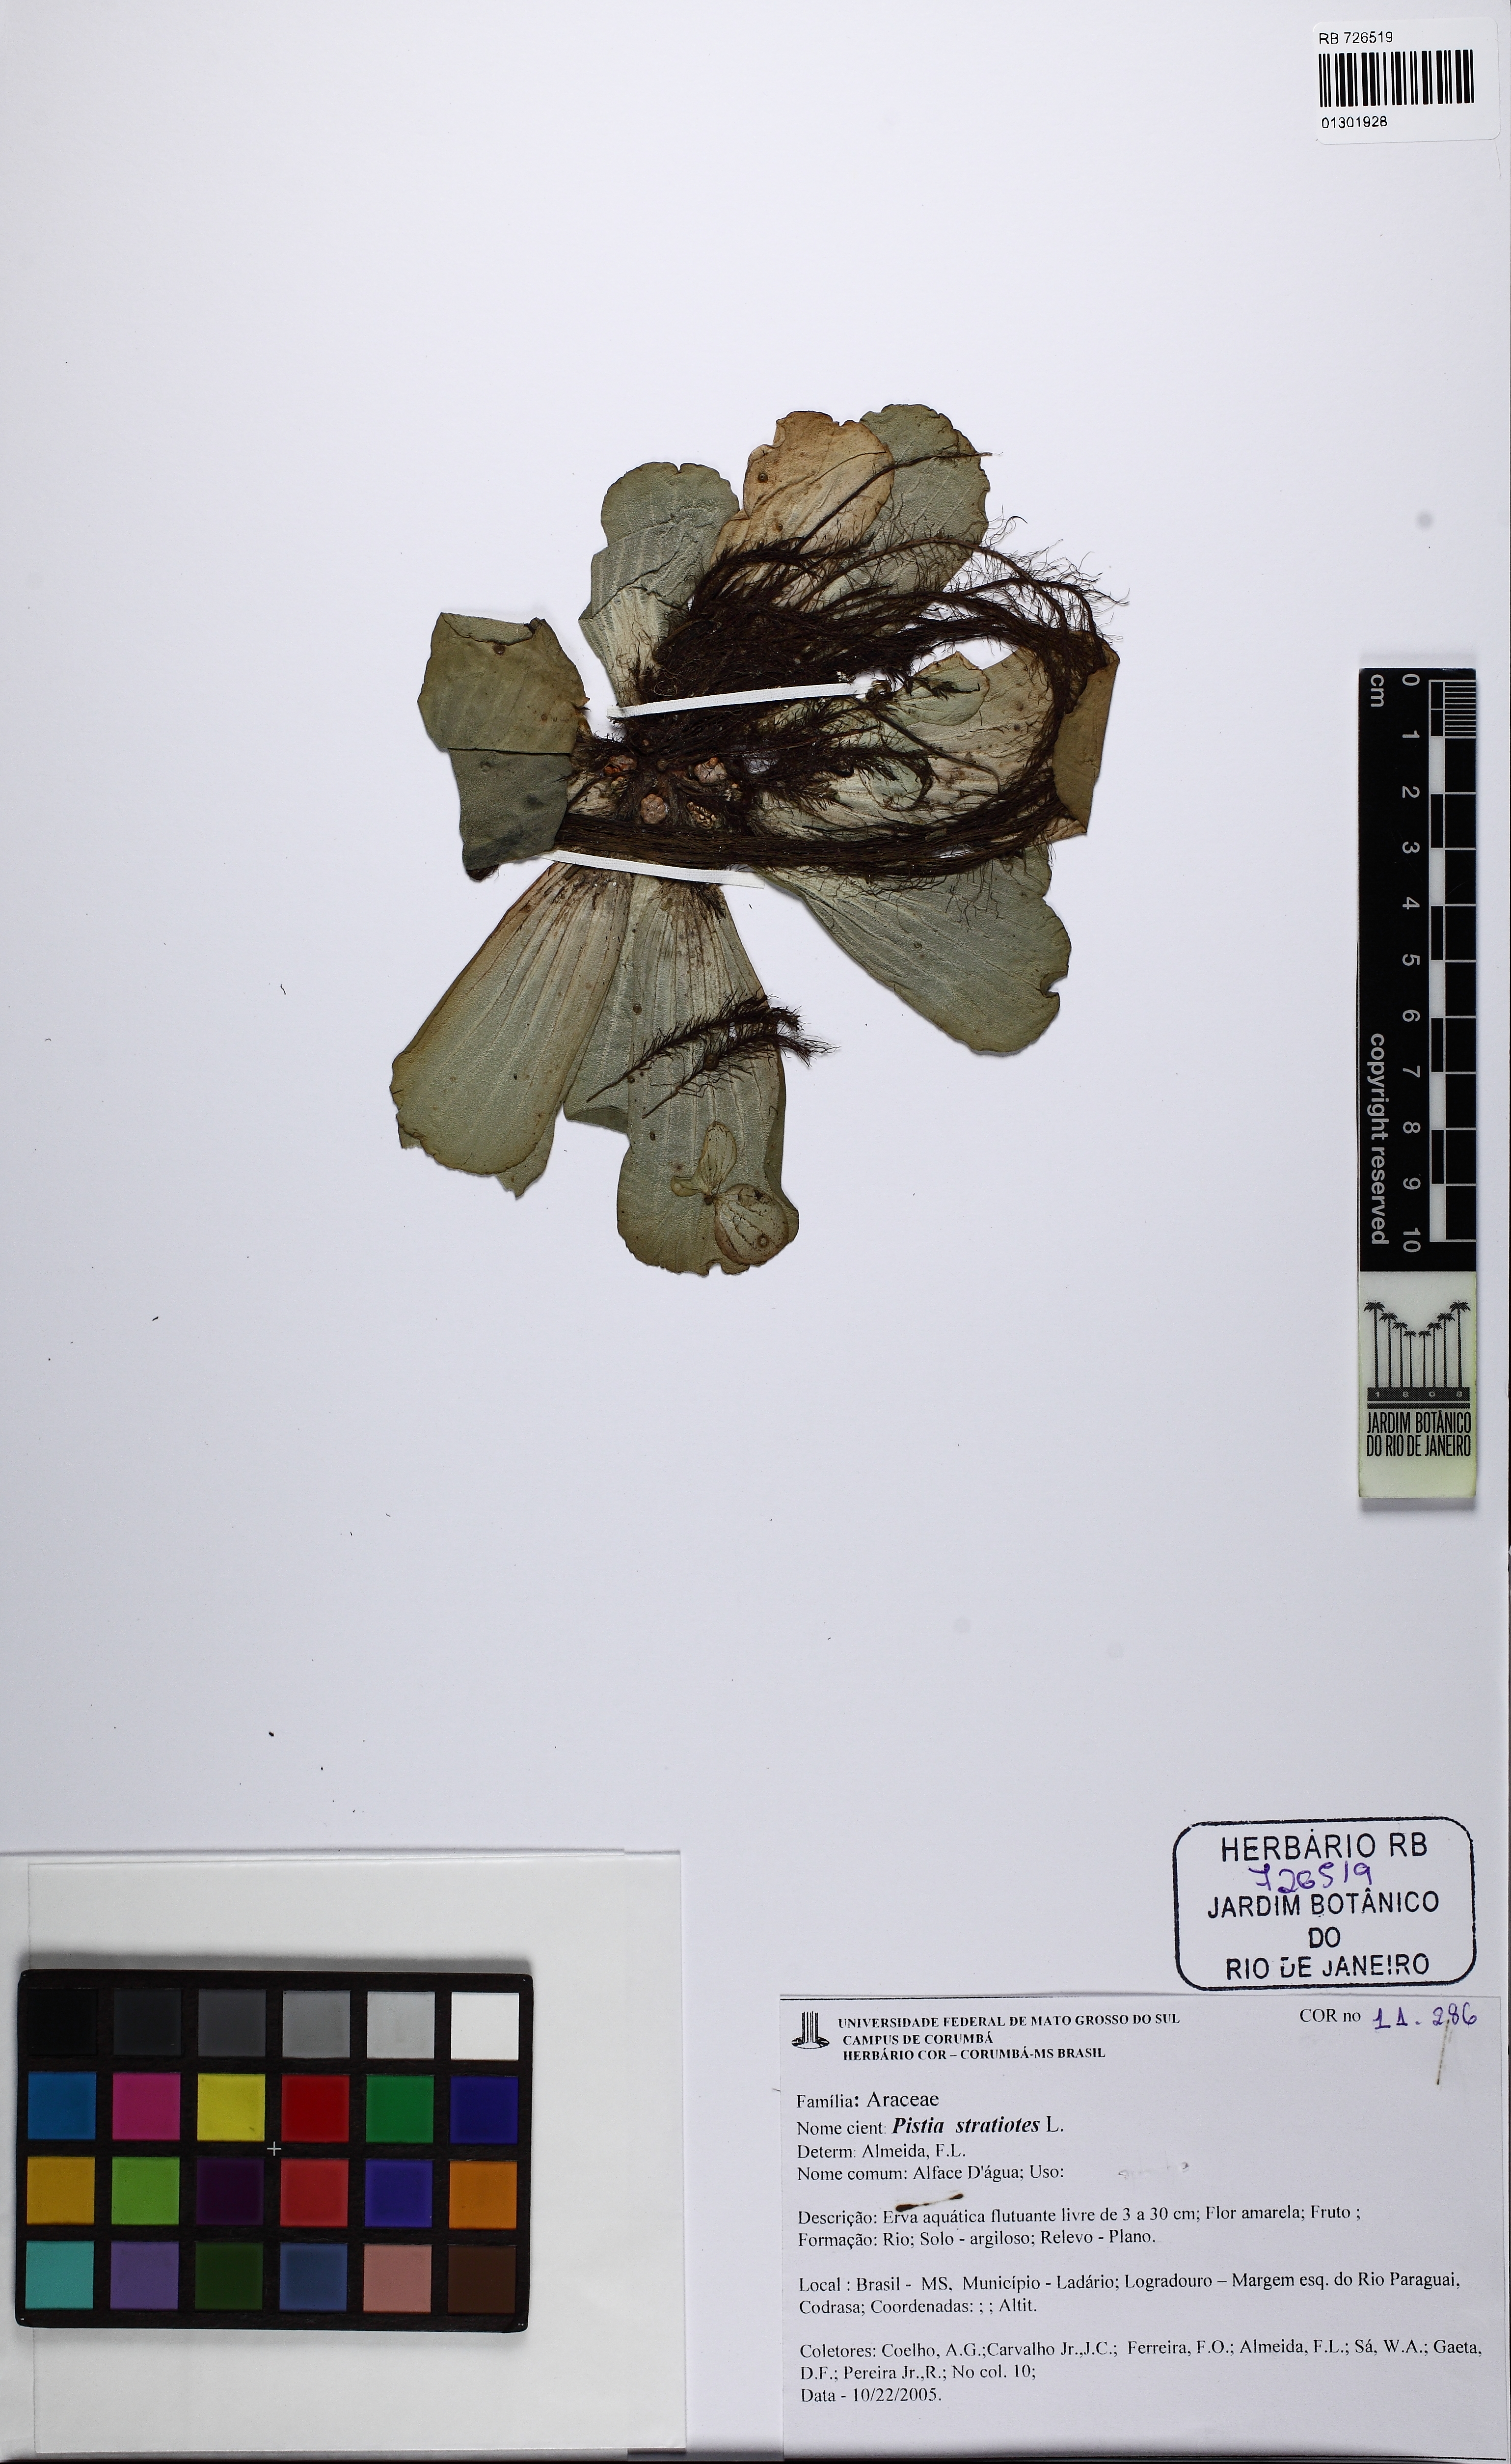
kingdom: Plantae
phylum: Tracheophyta
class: Liliopsida
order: Alismatales
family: Araceae
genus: Pistia
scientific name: Pistia stratiotes
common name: Water lettuce
